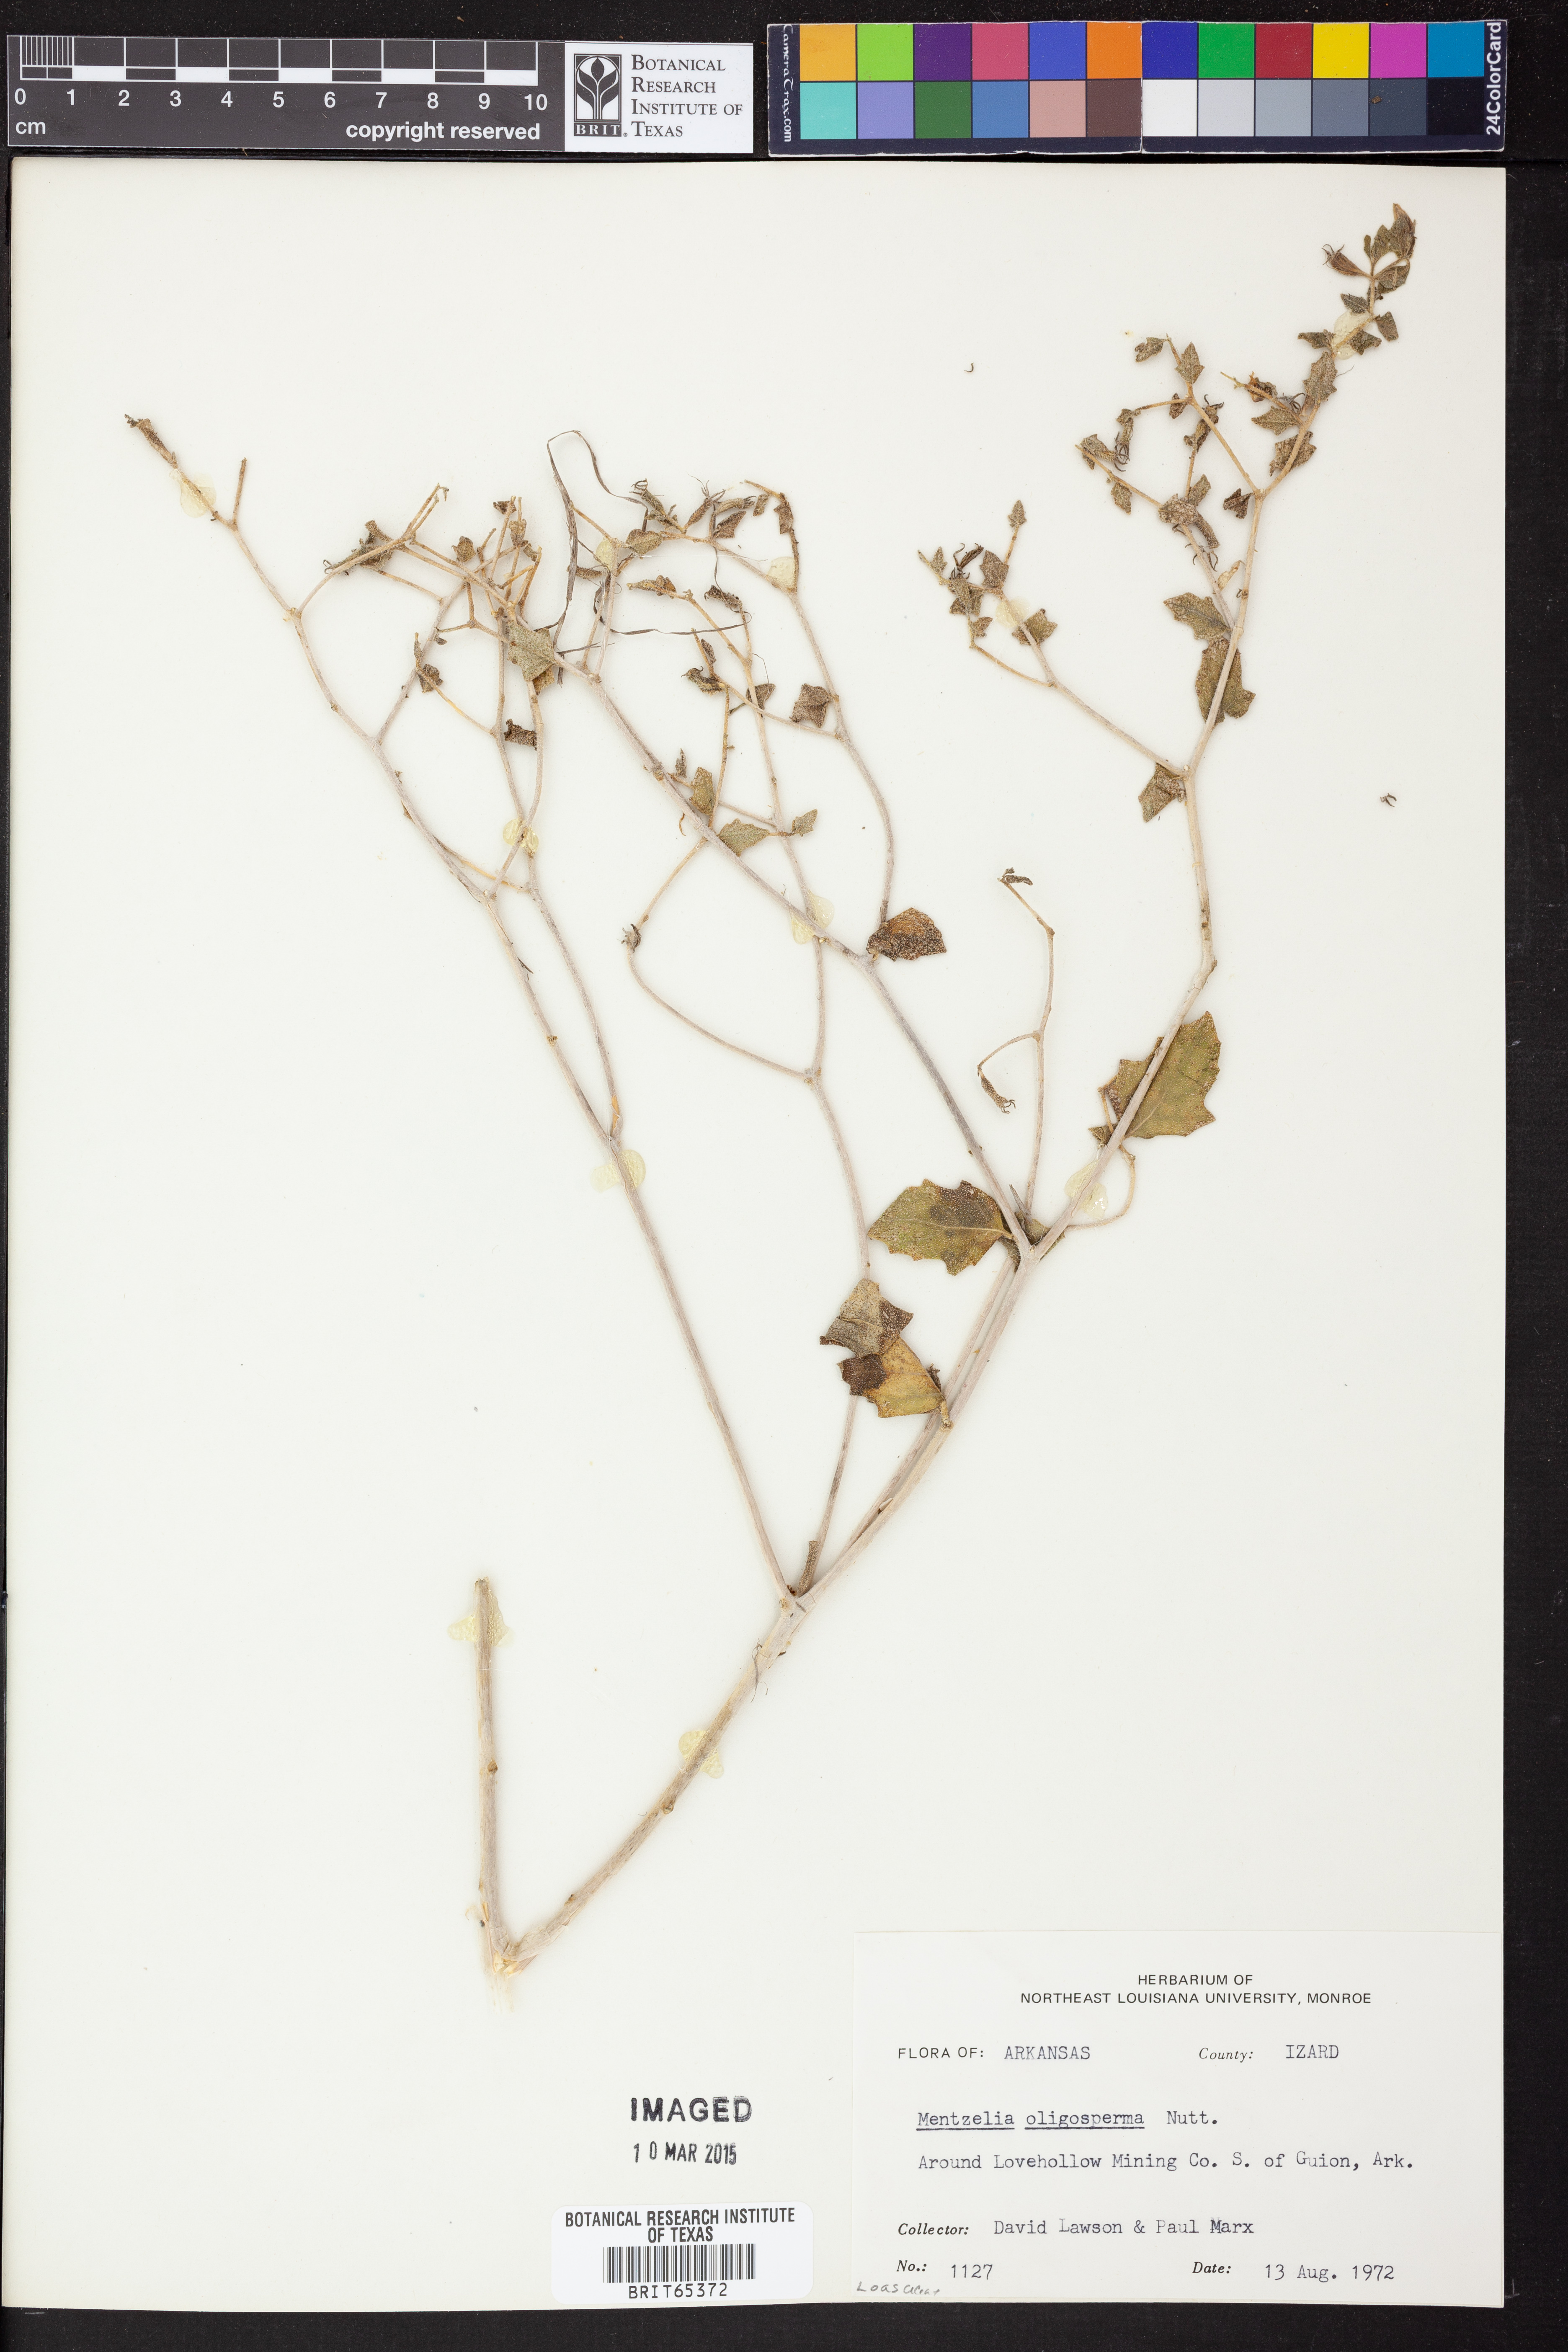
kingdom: Plantae
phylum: Tracheophyta
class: Magnoliopsida
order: Cornales
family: Loasaceae
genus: Mentzelia
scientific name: Mentzelia oligosperma
